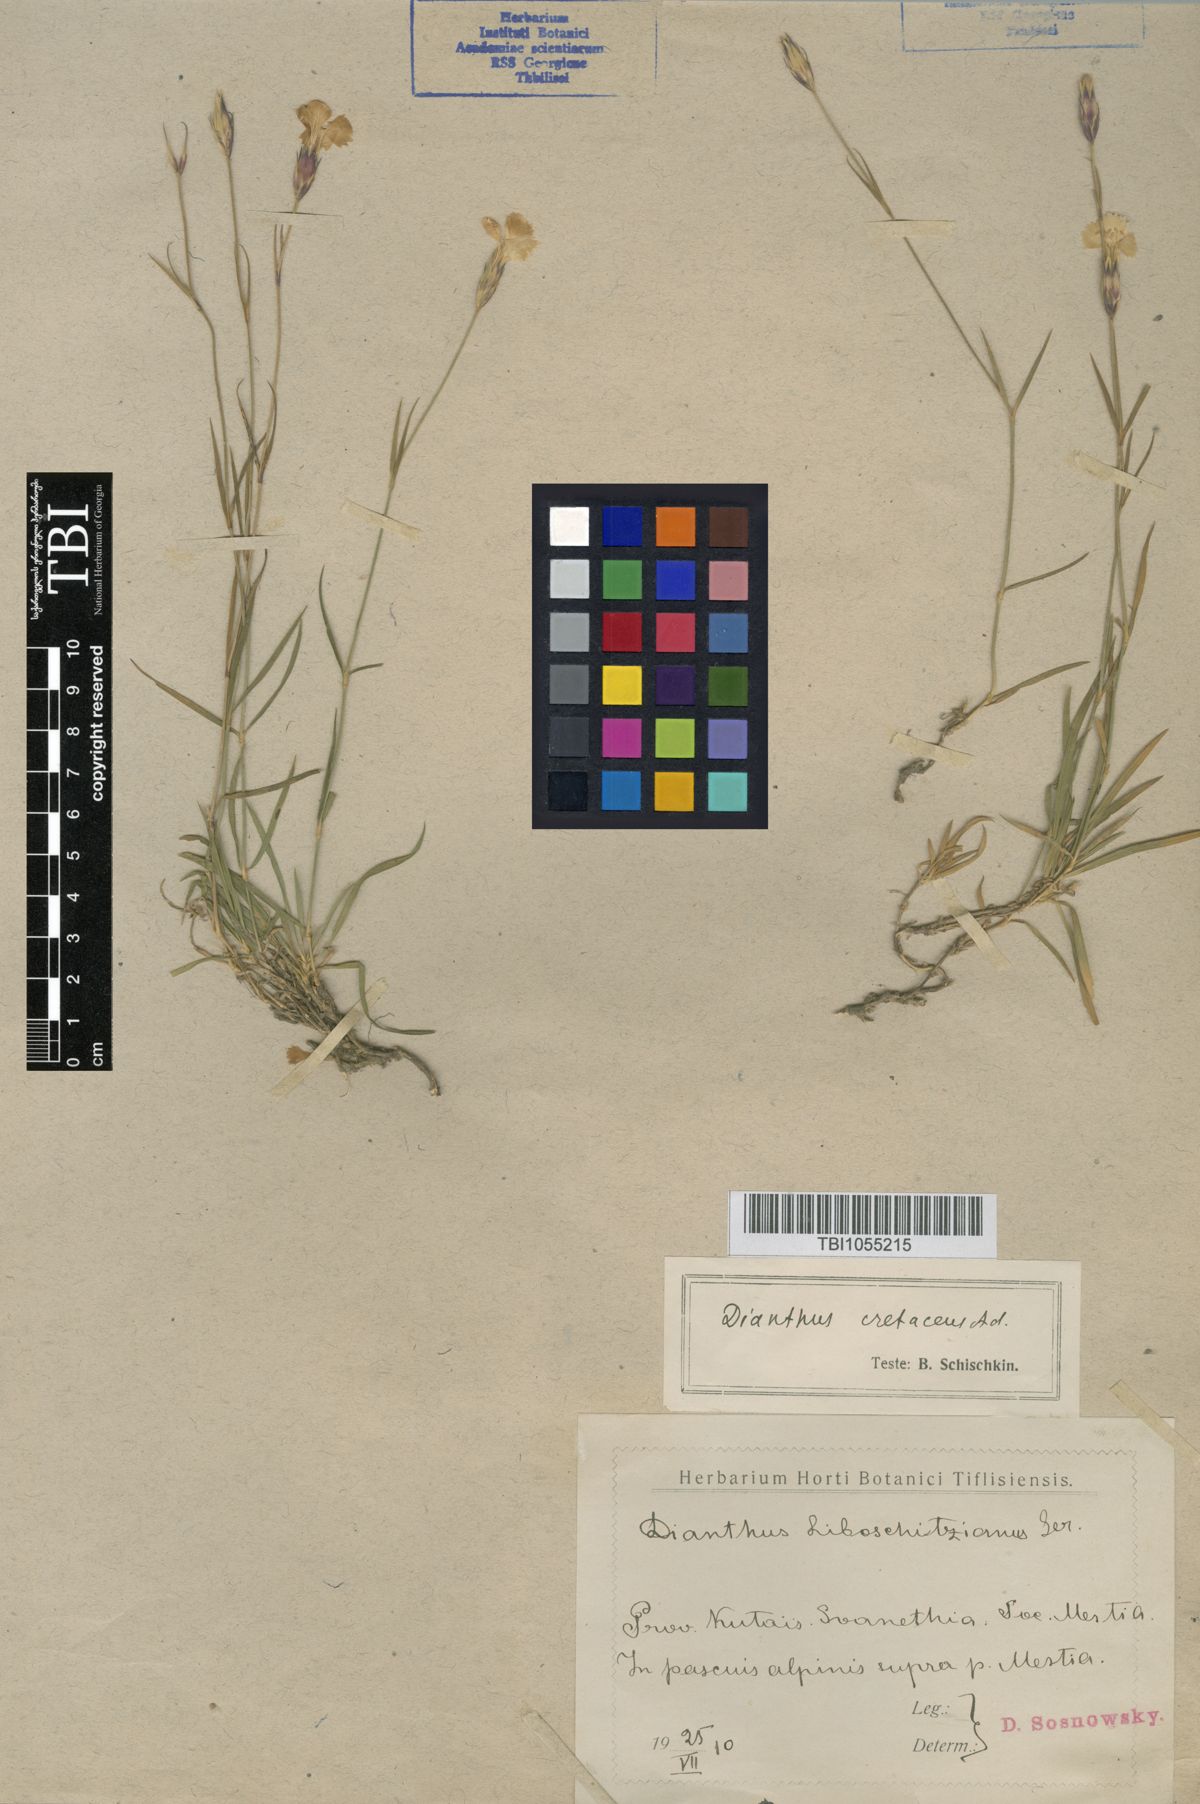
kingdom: Plantae
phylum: Tracheophyta
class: Magnoliopsida
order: Caryophyllales
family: Caryophyllaceae
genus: Dianthus
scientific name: Dianthus cretaceus
